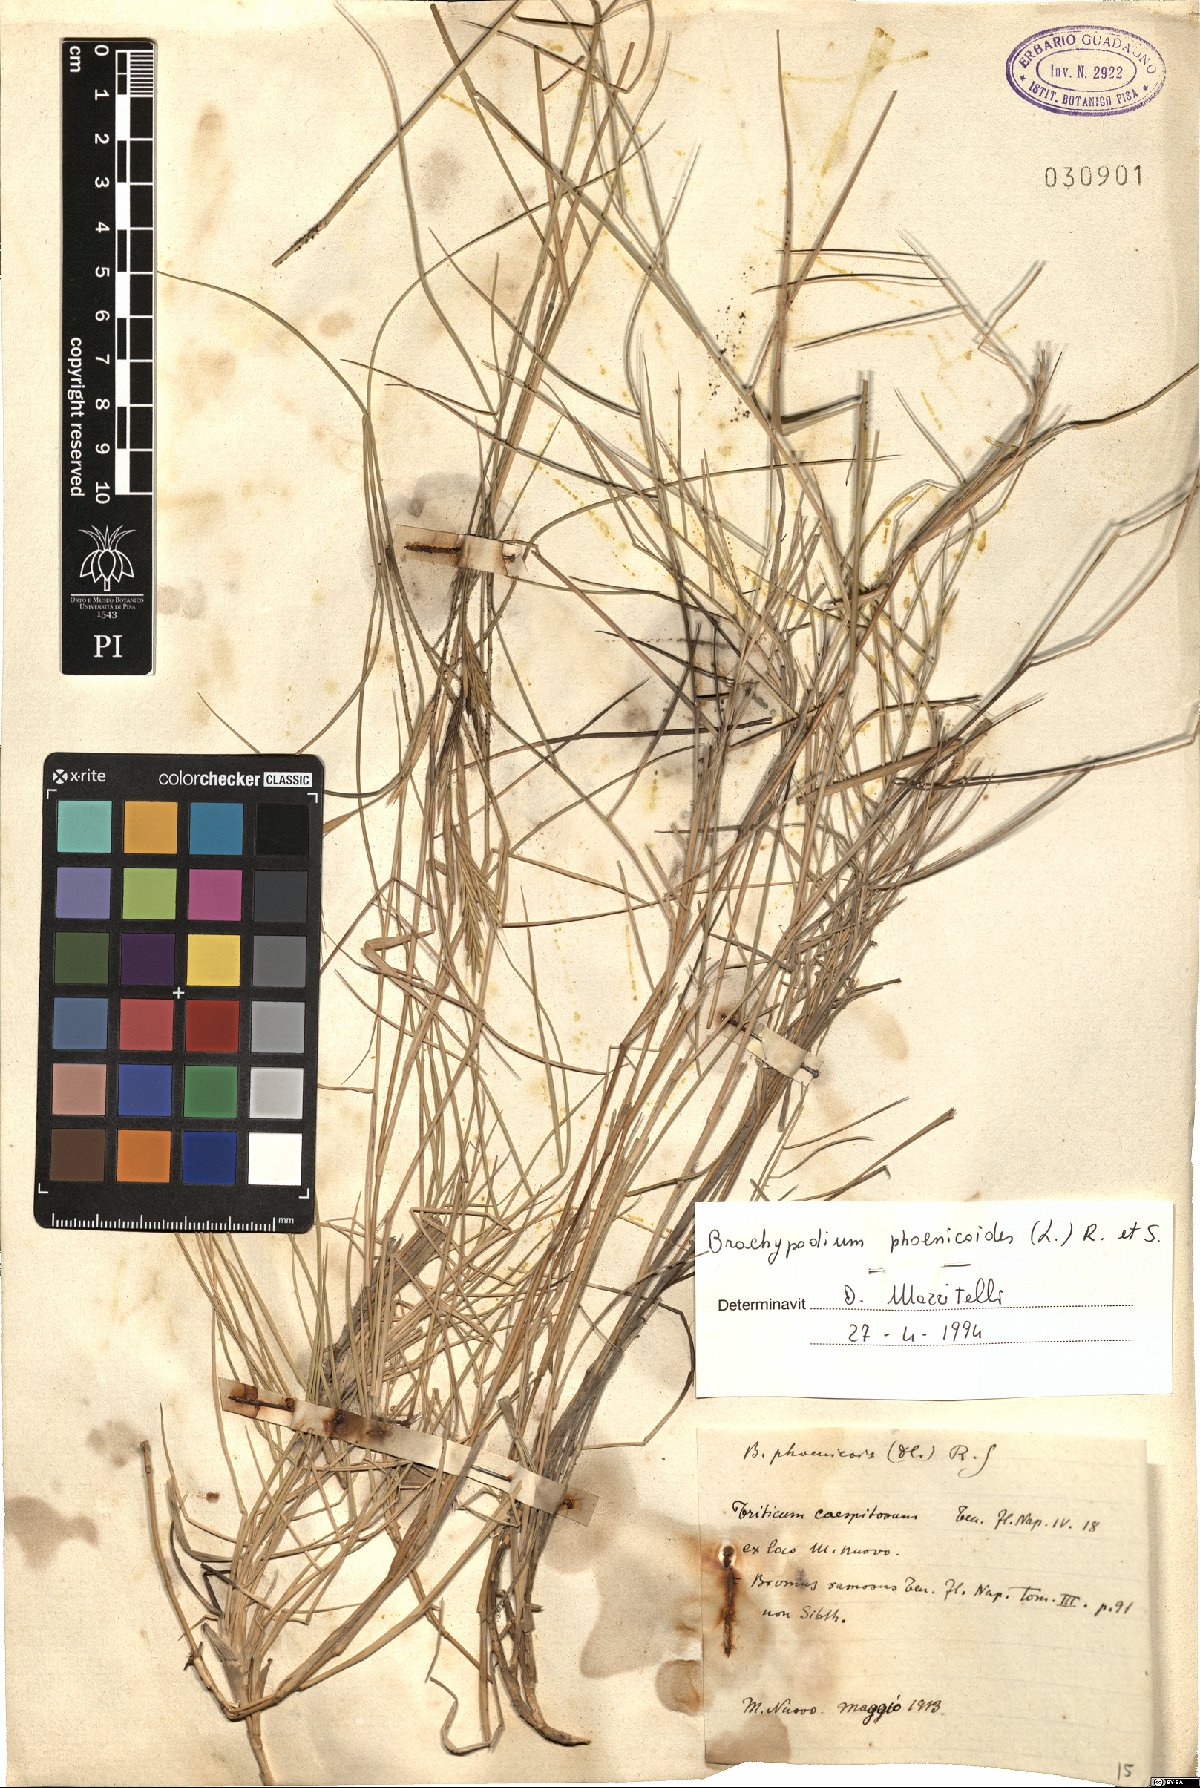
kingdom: Plantae
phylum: Tracheophyta
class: Liliopsida
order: Poales
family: Poaceae
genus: Brachypodium
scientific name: Brachypodium phoenicoides
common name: Thinleaf false brome
